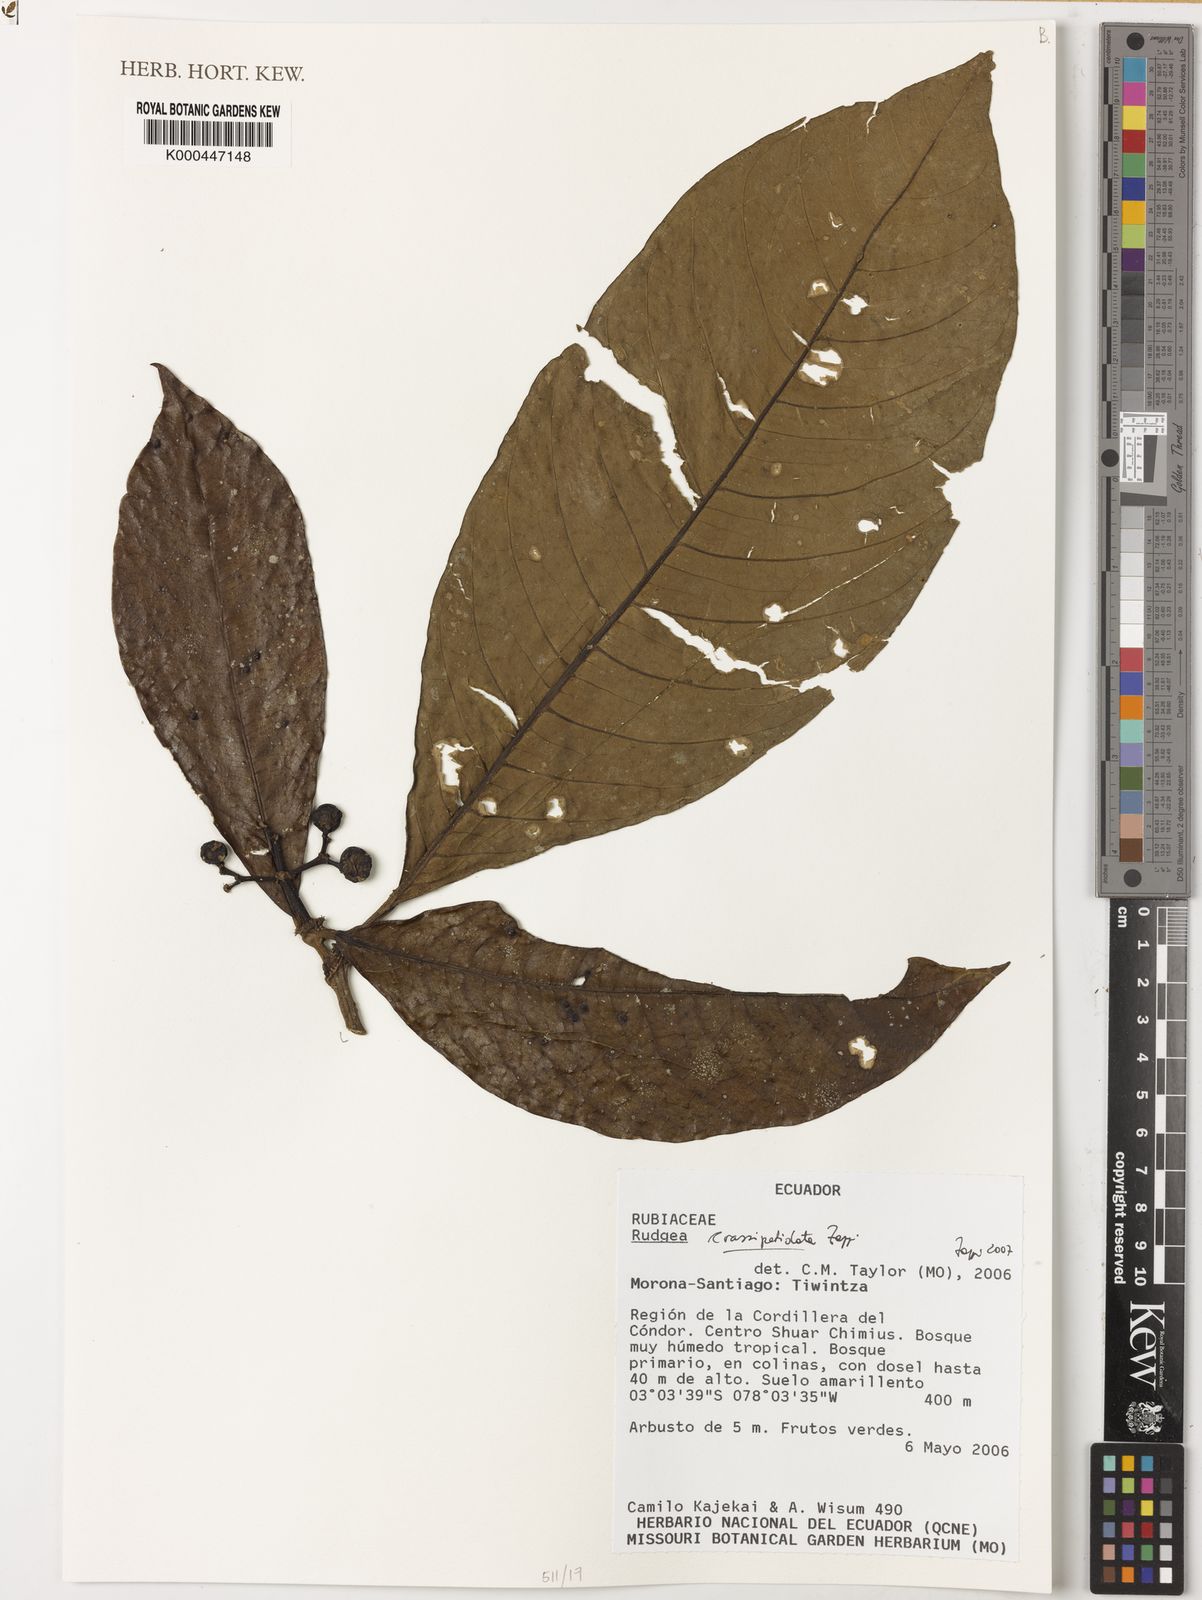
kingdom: Plantae
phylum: Tracheophyta
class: Magnoliopsida
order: Gentianales
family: Rubiaceae
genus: Rudgea
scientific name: Rudgea crassipetiolata
